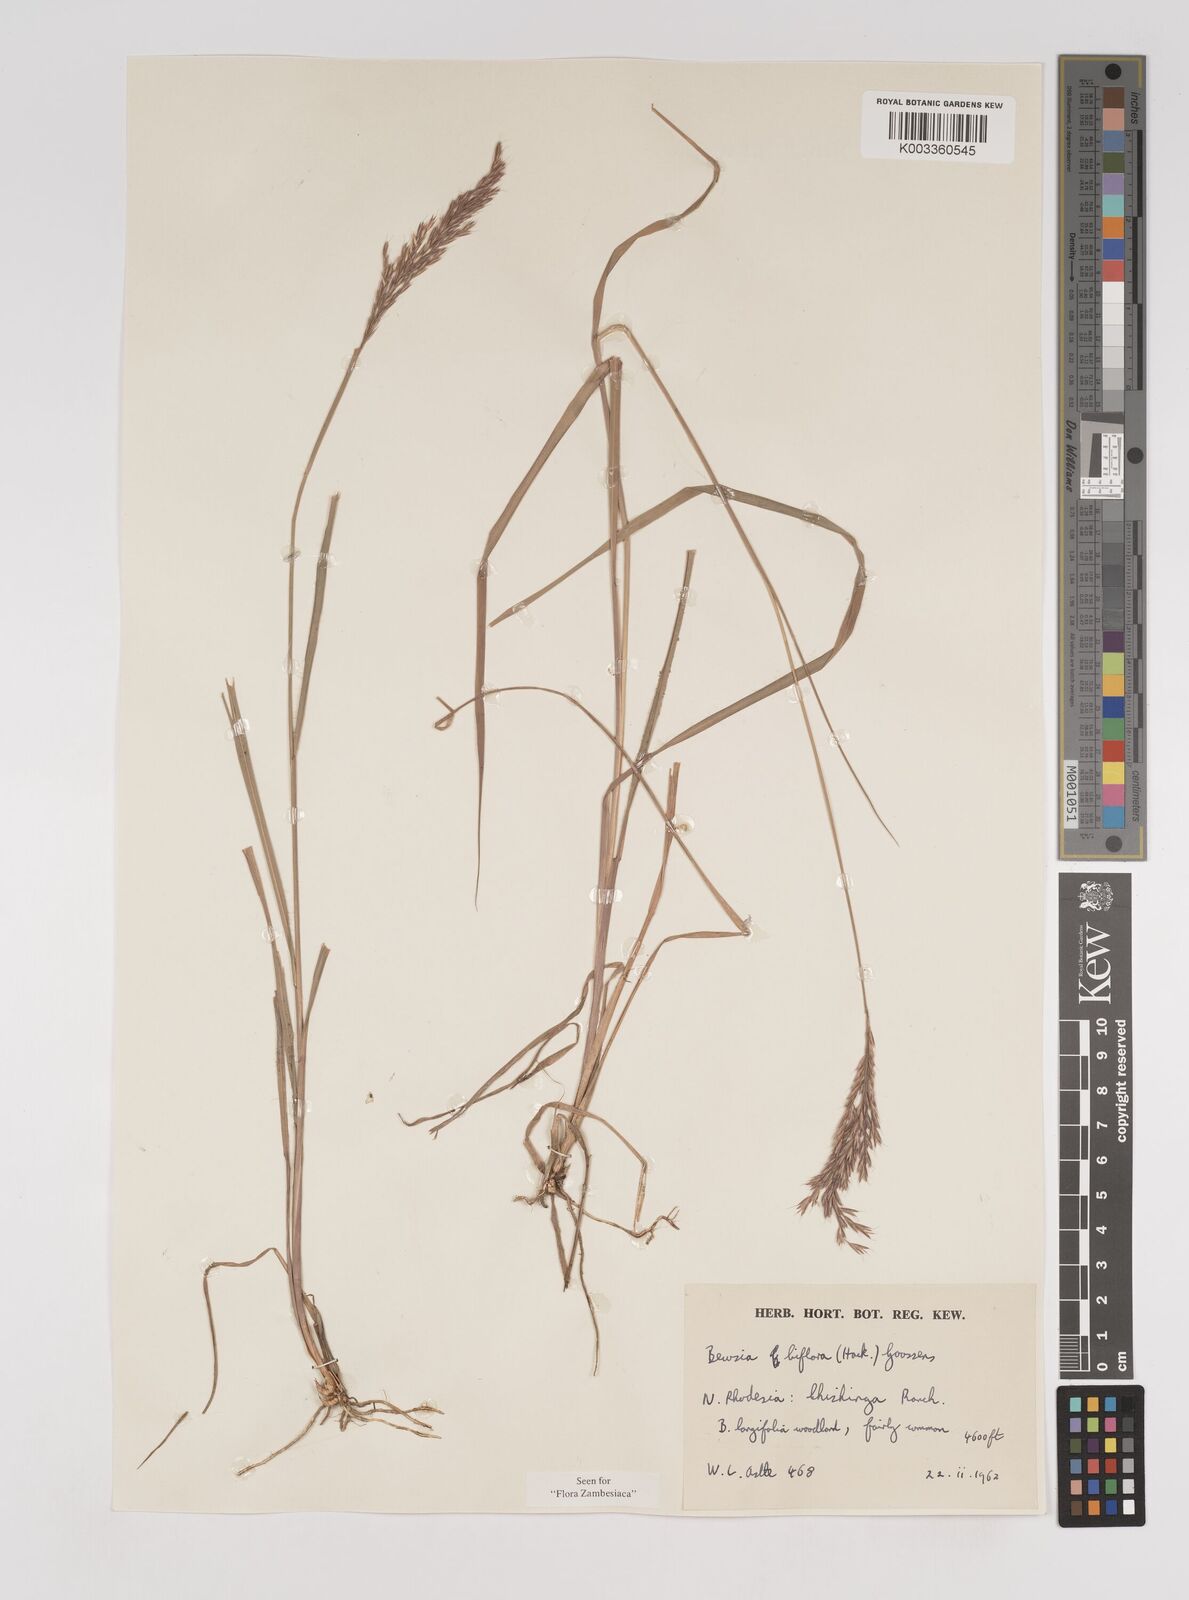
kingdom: Plantae
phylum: Tracheophyta
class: Liliopsida
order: Poales
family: Poaceae
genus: Bewsia
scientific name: Bewsia biflora
